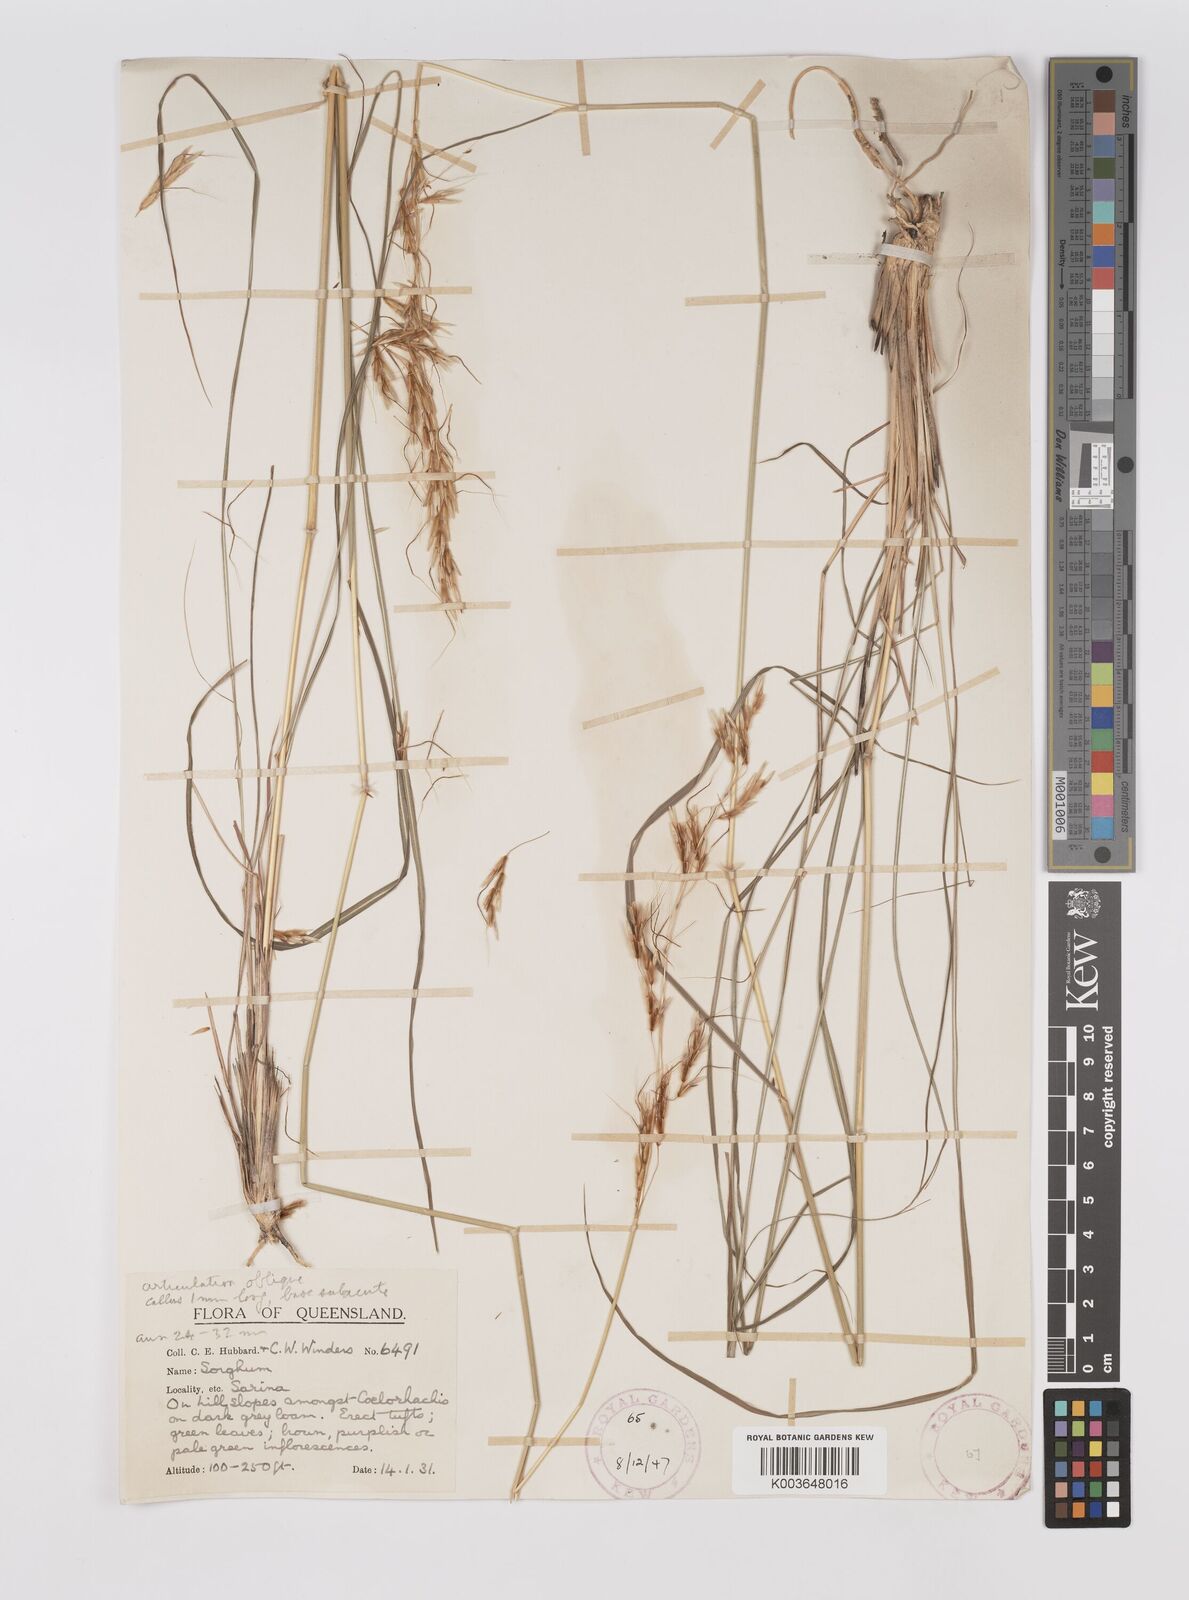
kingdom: Plantae
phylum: Tracheophyta
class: Liliopsida
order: Poales
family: Poaceae
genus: Sarga
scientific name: Sarga leioclada
